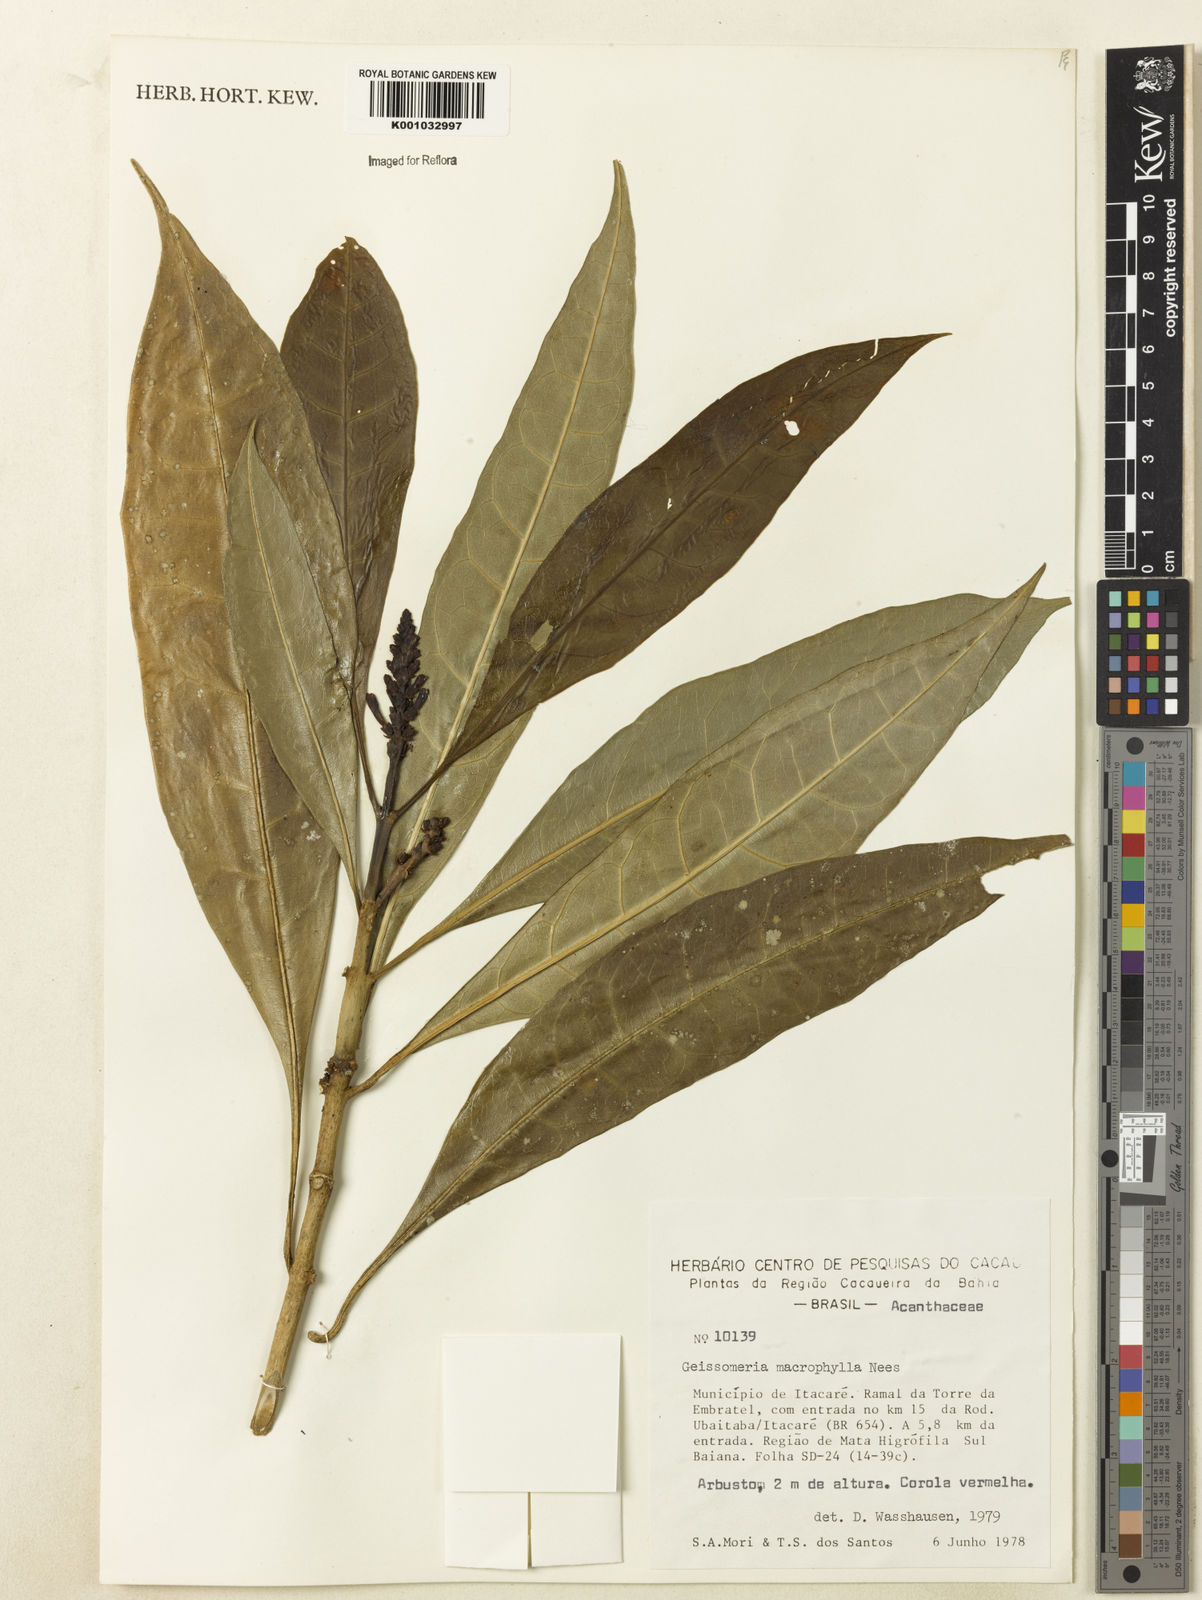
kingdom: Plantae
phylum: Tracheophyta
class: Magnoliopsida
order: Lamiales
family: Acanthaceae
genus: Aphelandra
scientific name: Aphelandra nitida
